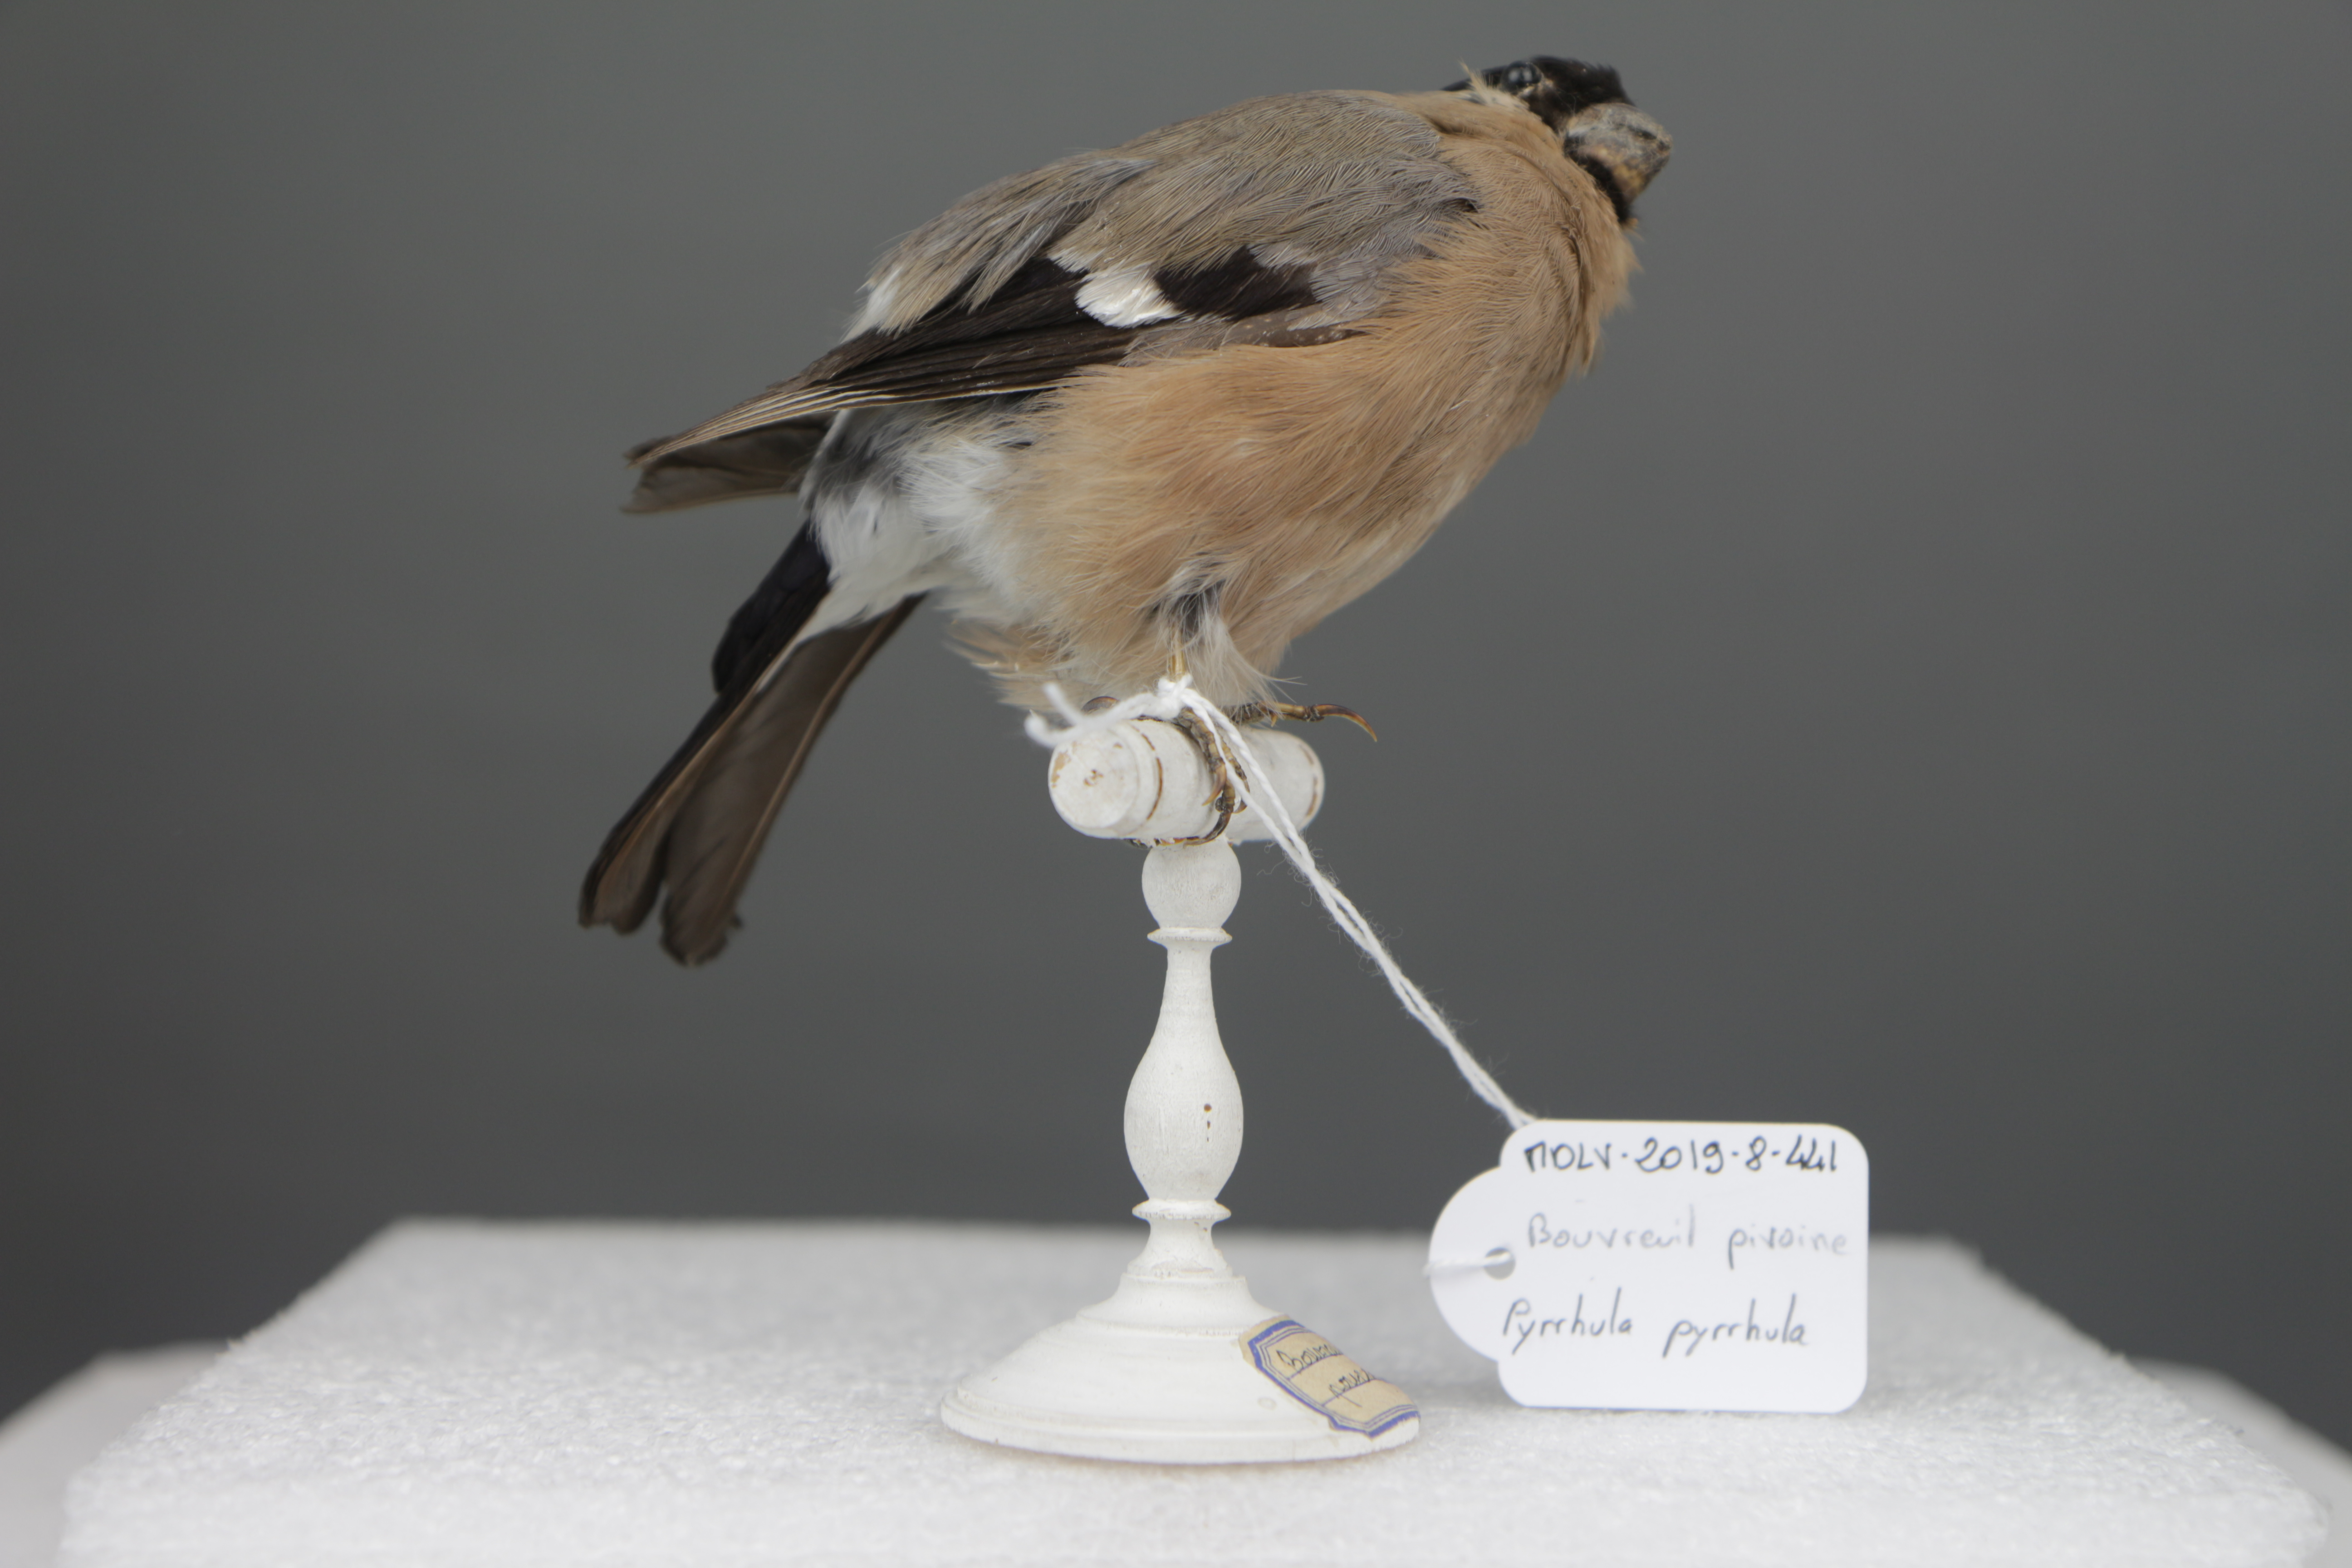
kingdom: Animalia
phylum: Chordata
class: Aves
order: Passeriformes
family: Fringillidae
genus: Pyrrhula
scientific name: Pyrrhula pyrrhula
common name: Eurasian bullfinch
